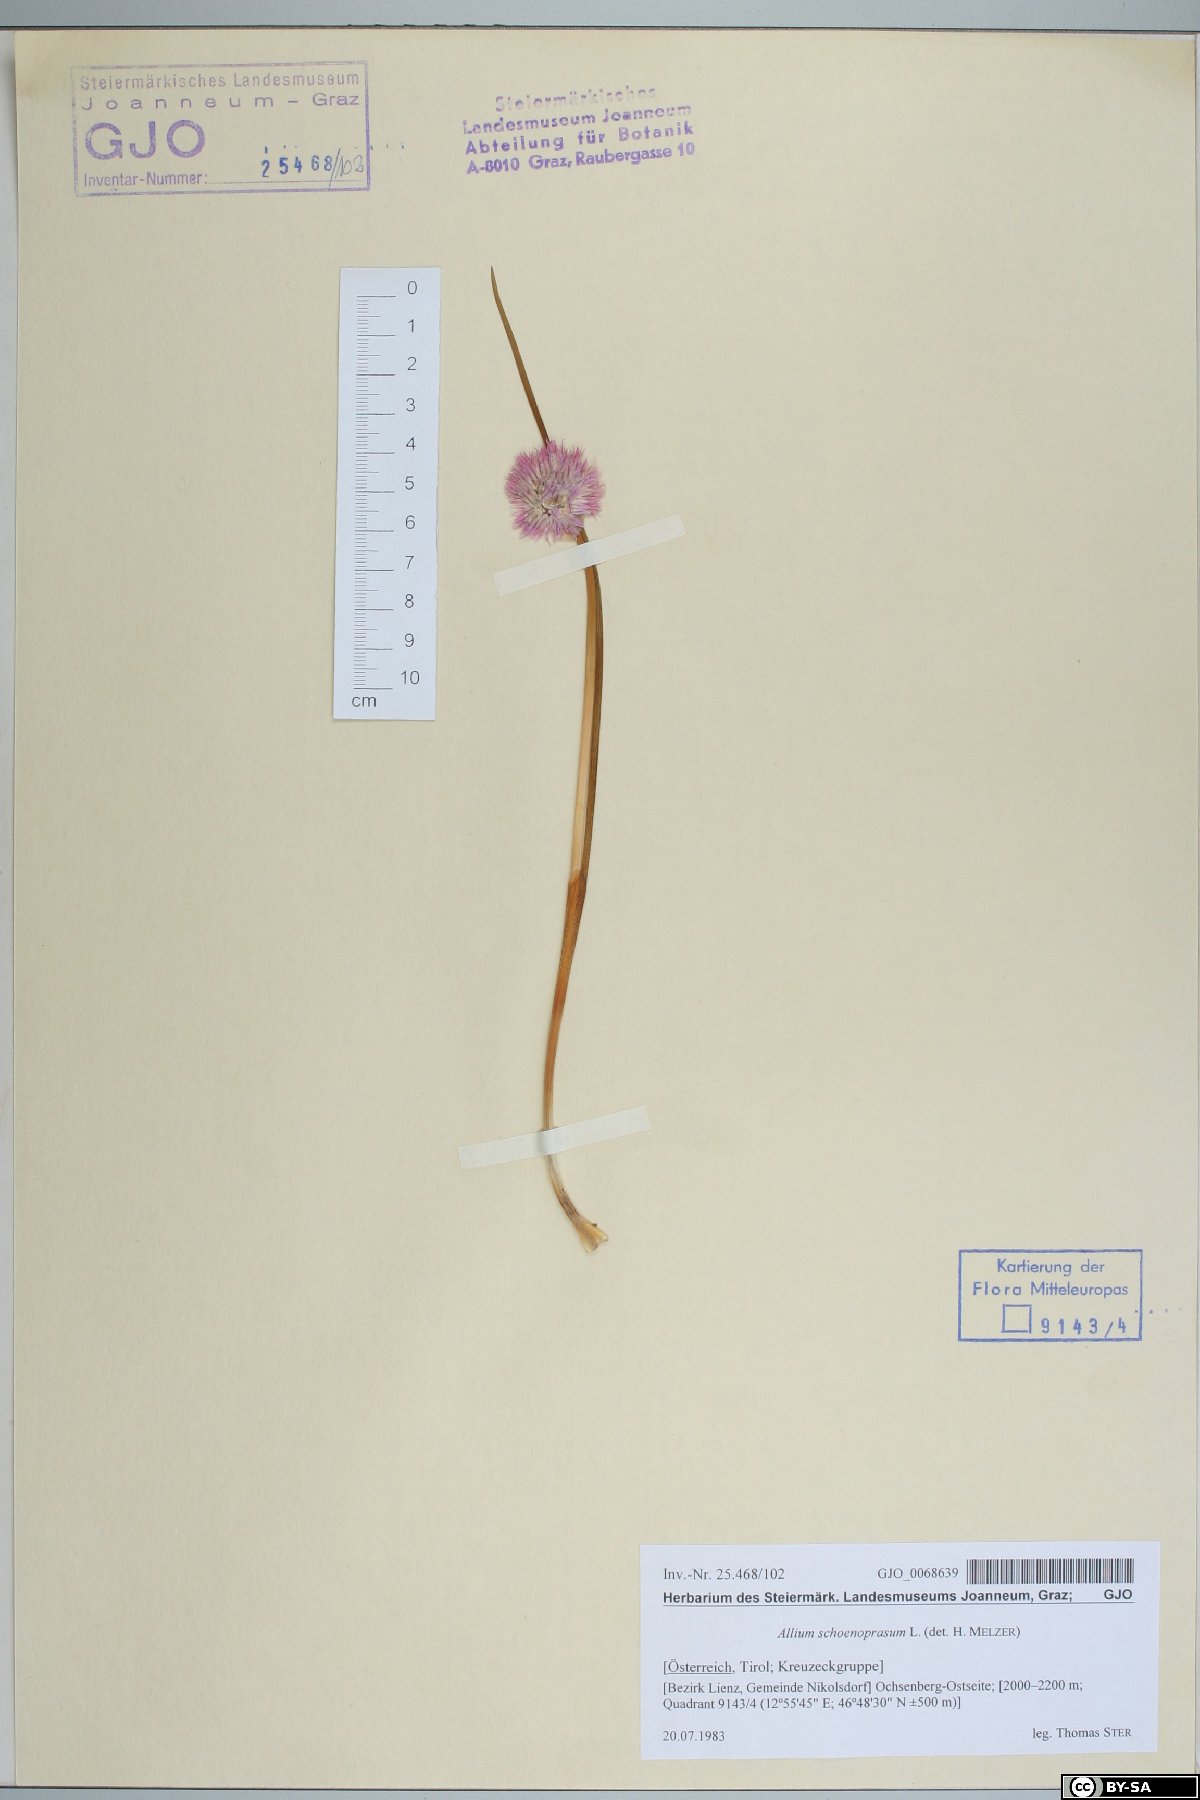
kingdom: Plantae
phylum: Tracheophyta
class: Liliopsida
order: Asparagales
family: Amaryllidaceae
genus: Allium
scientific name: Allium schoenoprasum
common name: Chives
